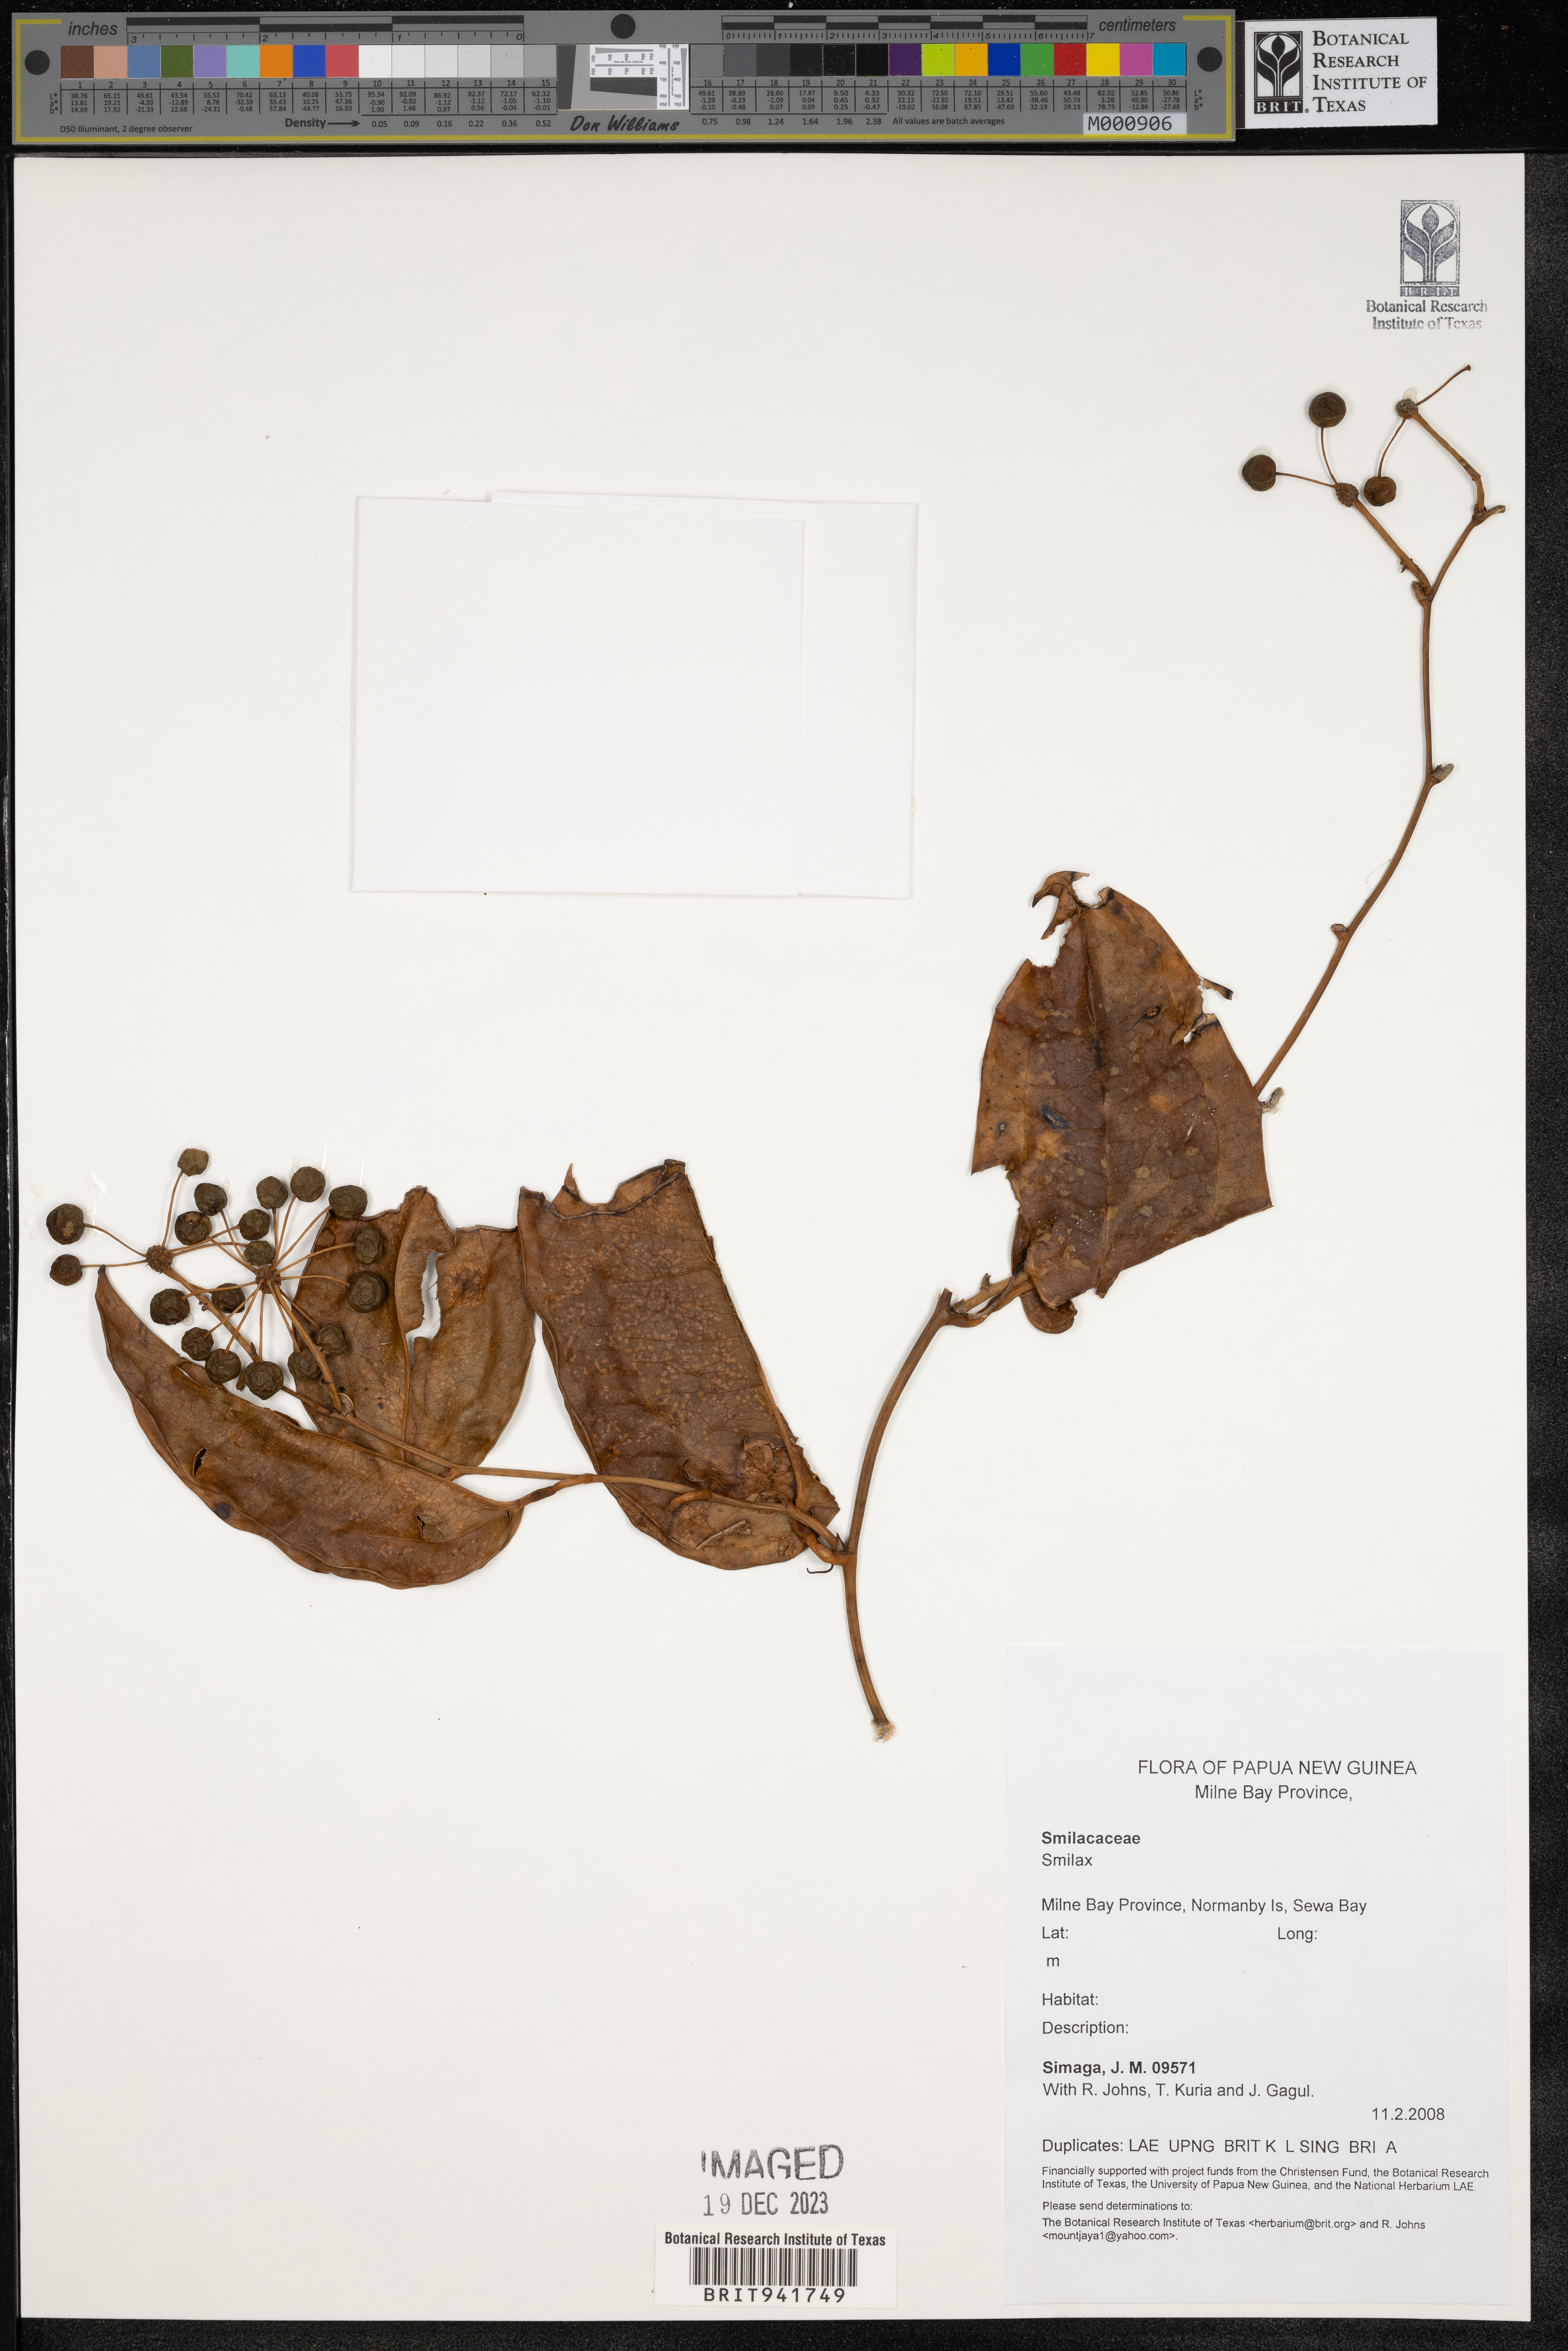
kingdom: Plantae
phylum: Tracheophyta
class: Liliopsida
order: Liliales
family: Smilacaceae
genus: Smilax
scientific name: Smilax
